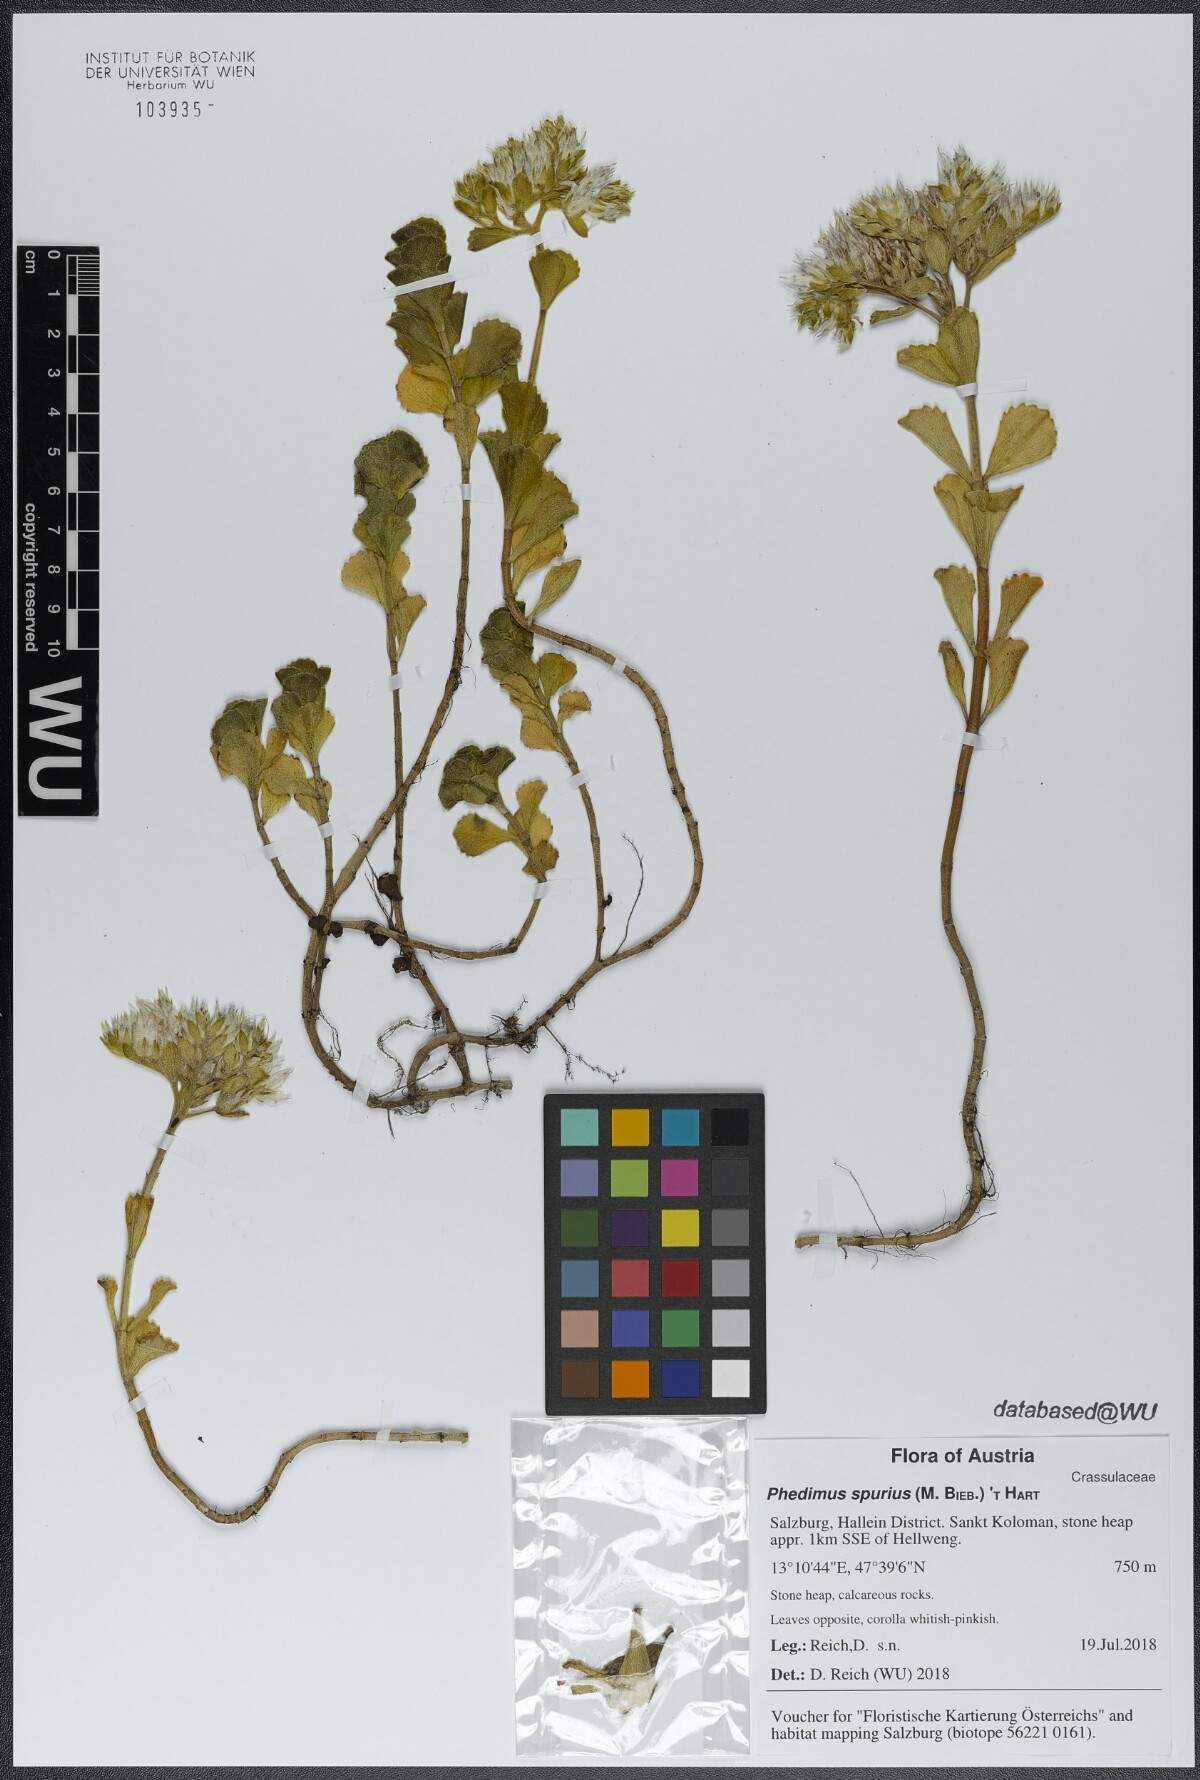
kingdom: Plantae
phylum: Tracheophyta
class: Magnoliopsida
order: Saxifragales
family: Crassulaceae
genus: Phedimus
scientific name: Phedimus spurius
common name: Caucasian stonecrop
